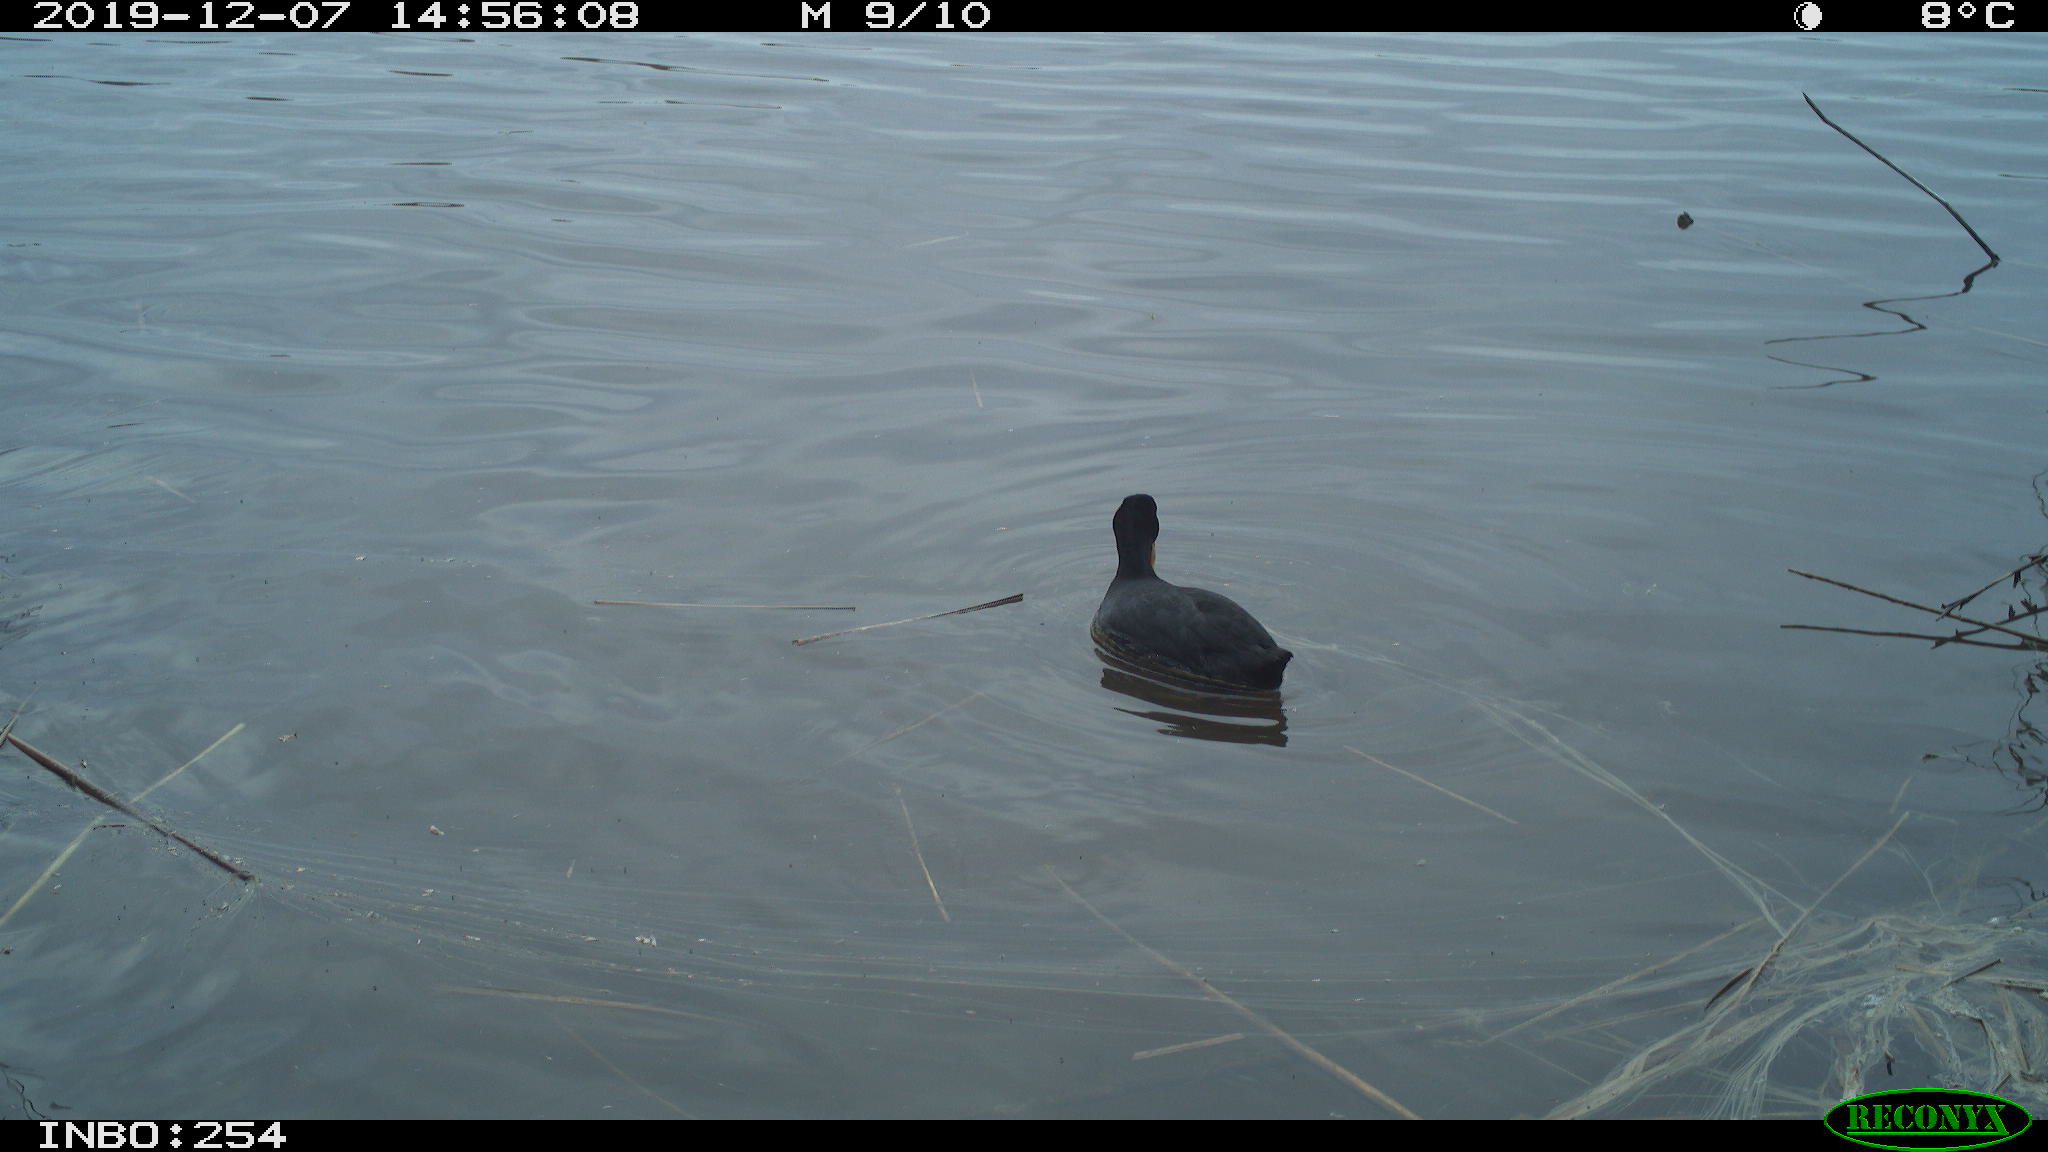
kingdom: Animalia
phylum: Chordata
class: Aves
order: Gruiformes
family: Rallidae
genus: Fulica
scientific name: Fulica atra
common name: Eurasian coot
